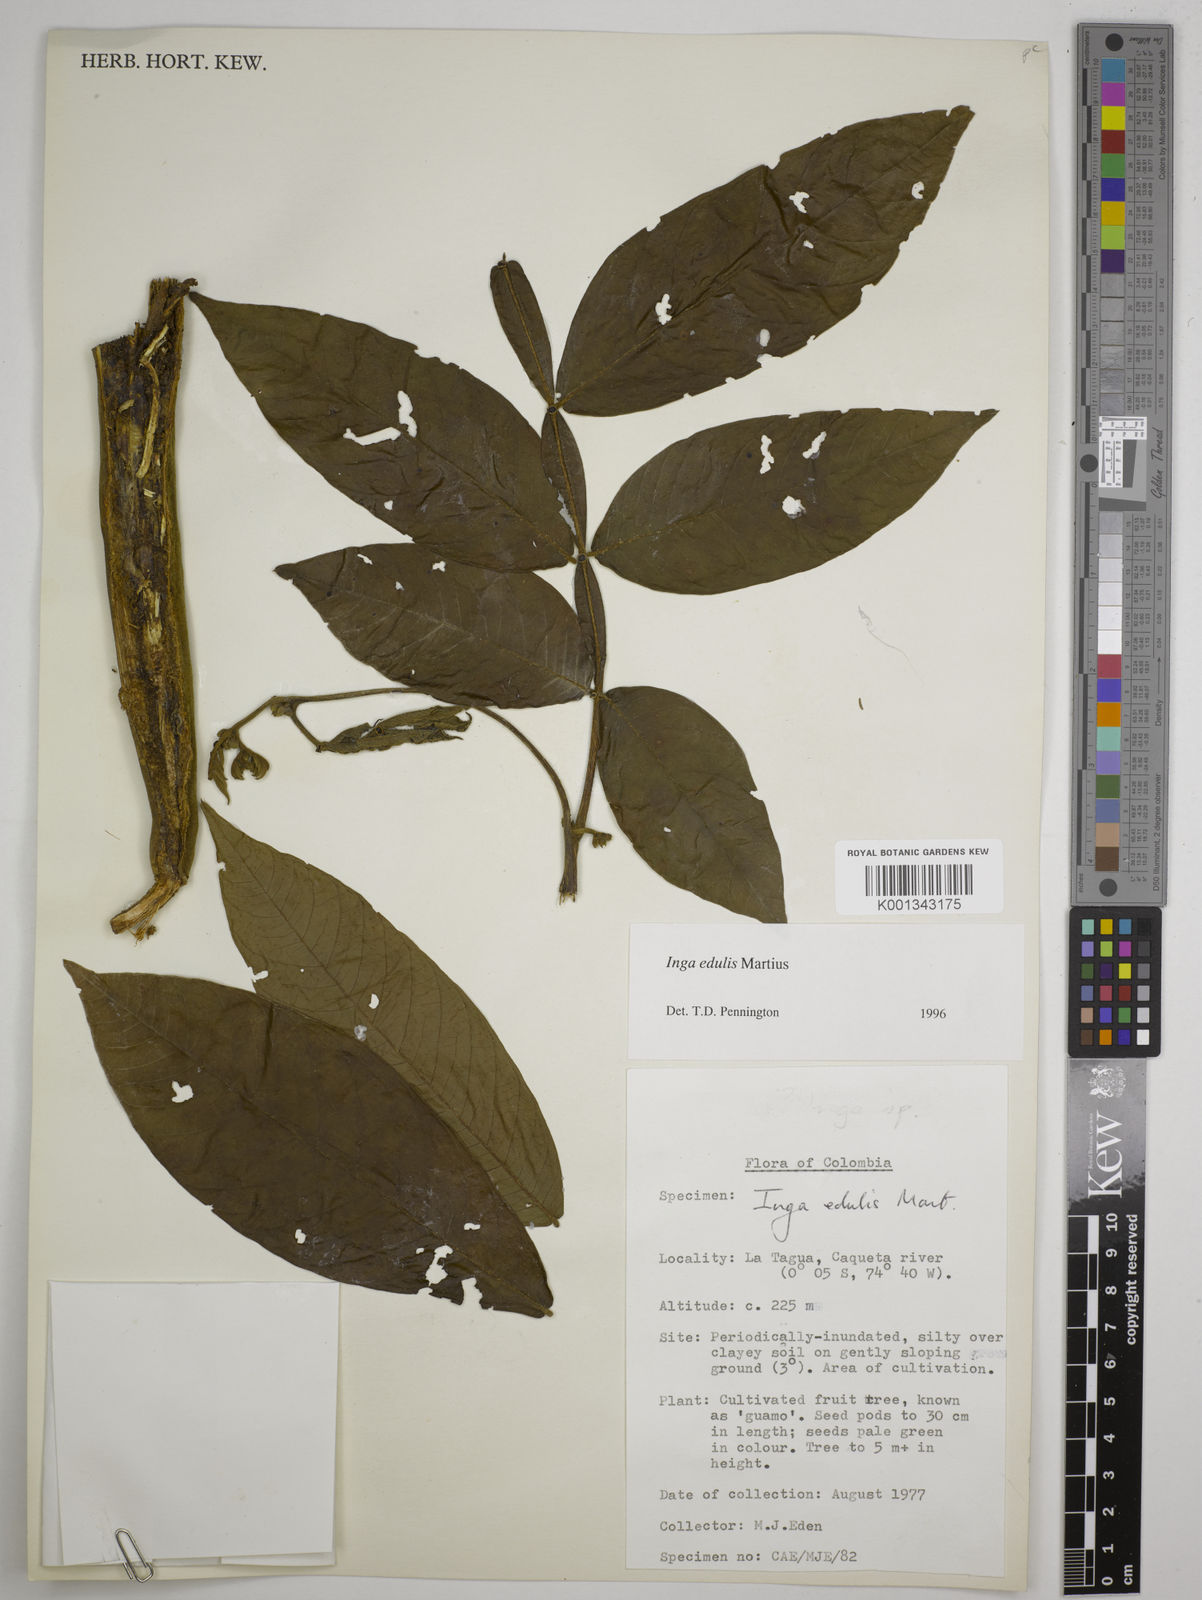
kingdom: Plantae
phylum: Tracheophyta
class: Magnoliopsida
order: Fabales
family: Fabaceae
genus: Inga
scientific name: Inga edulis
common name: Ice cream bean
